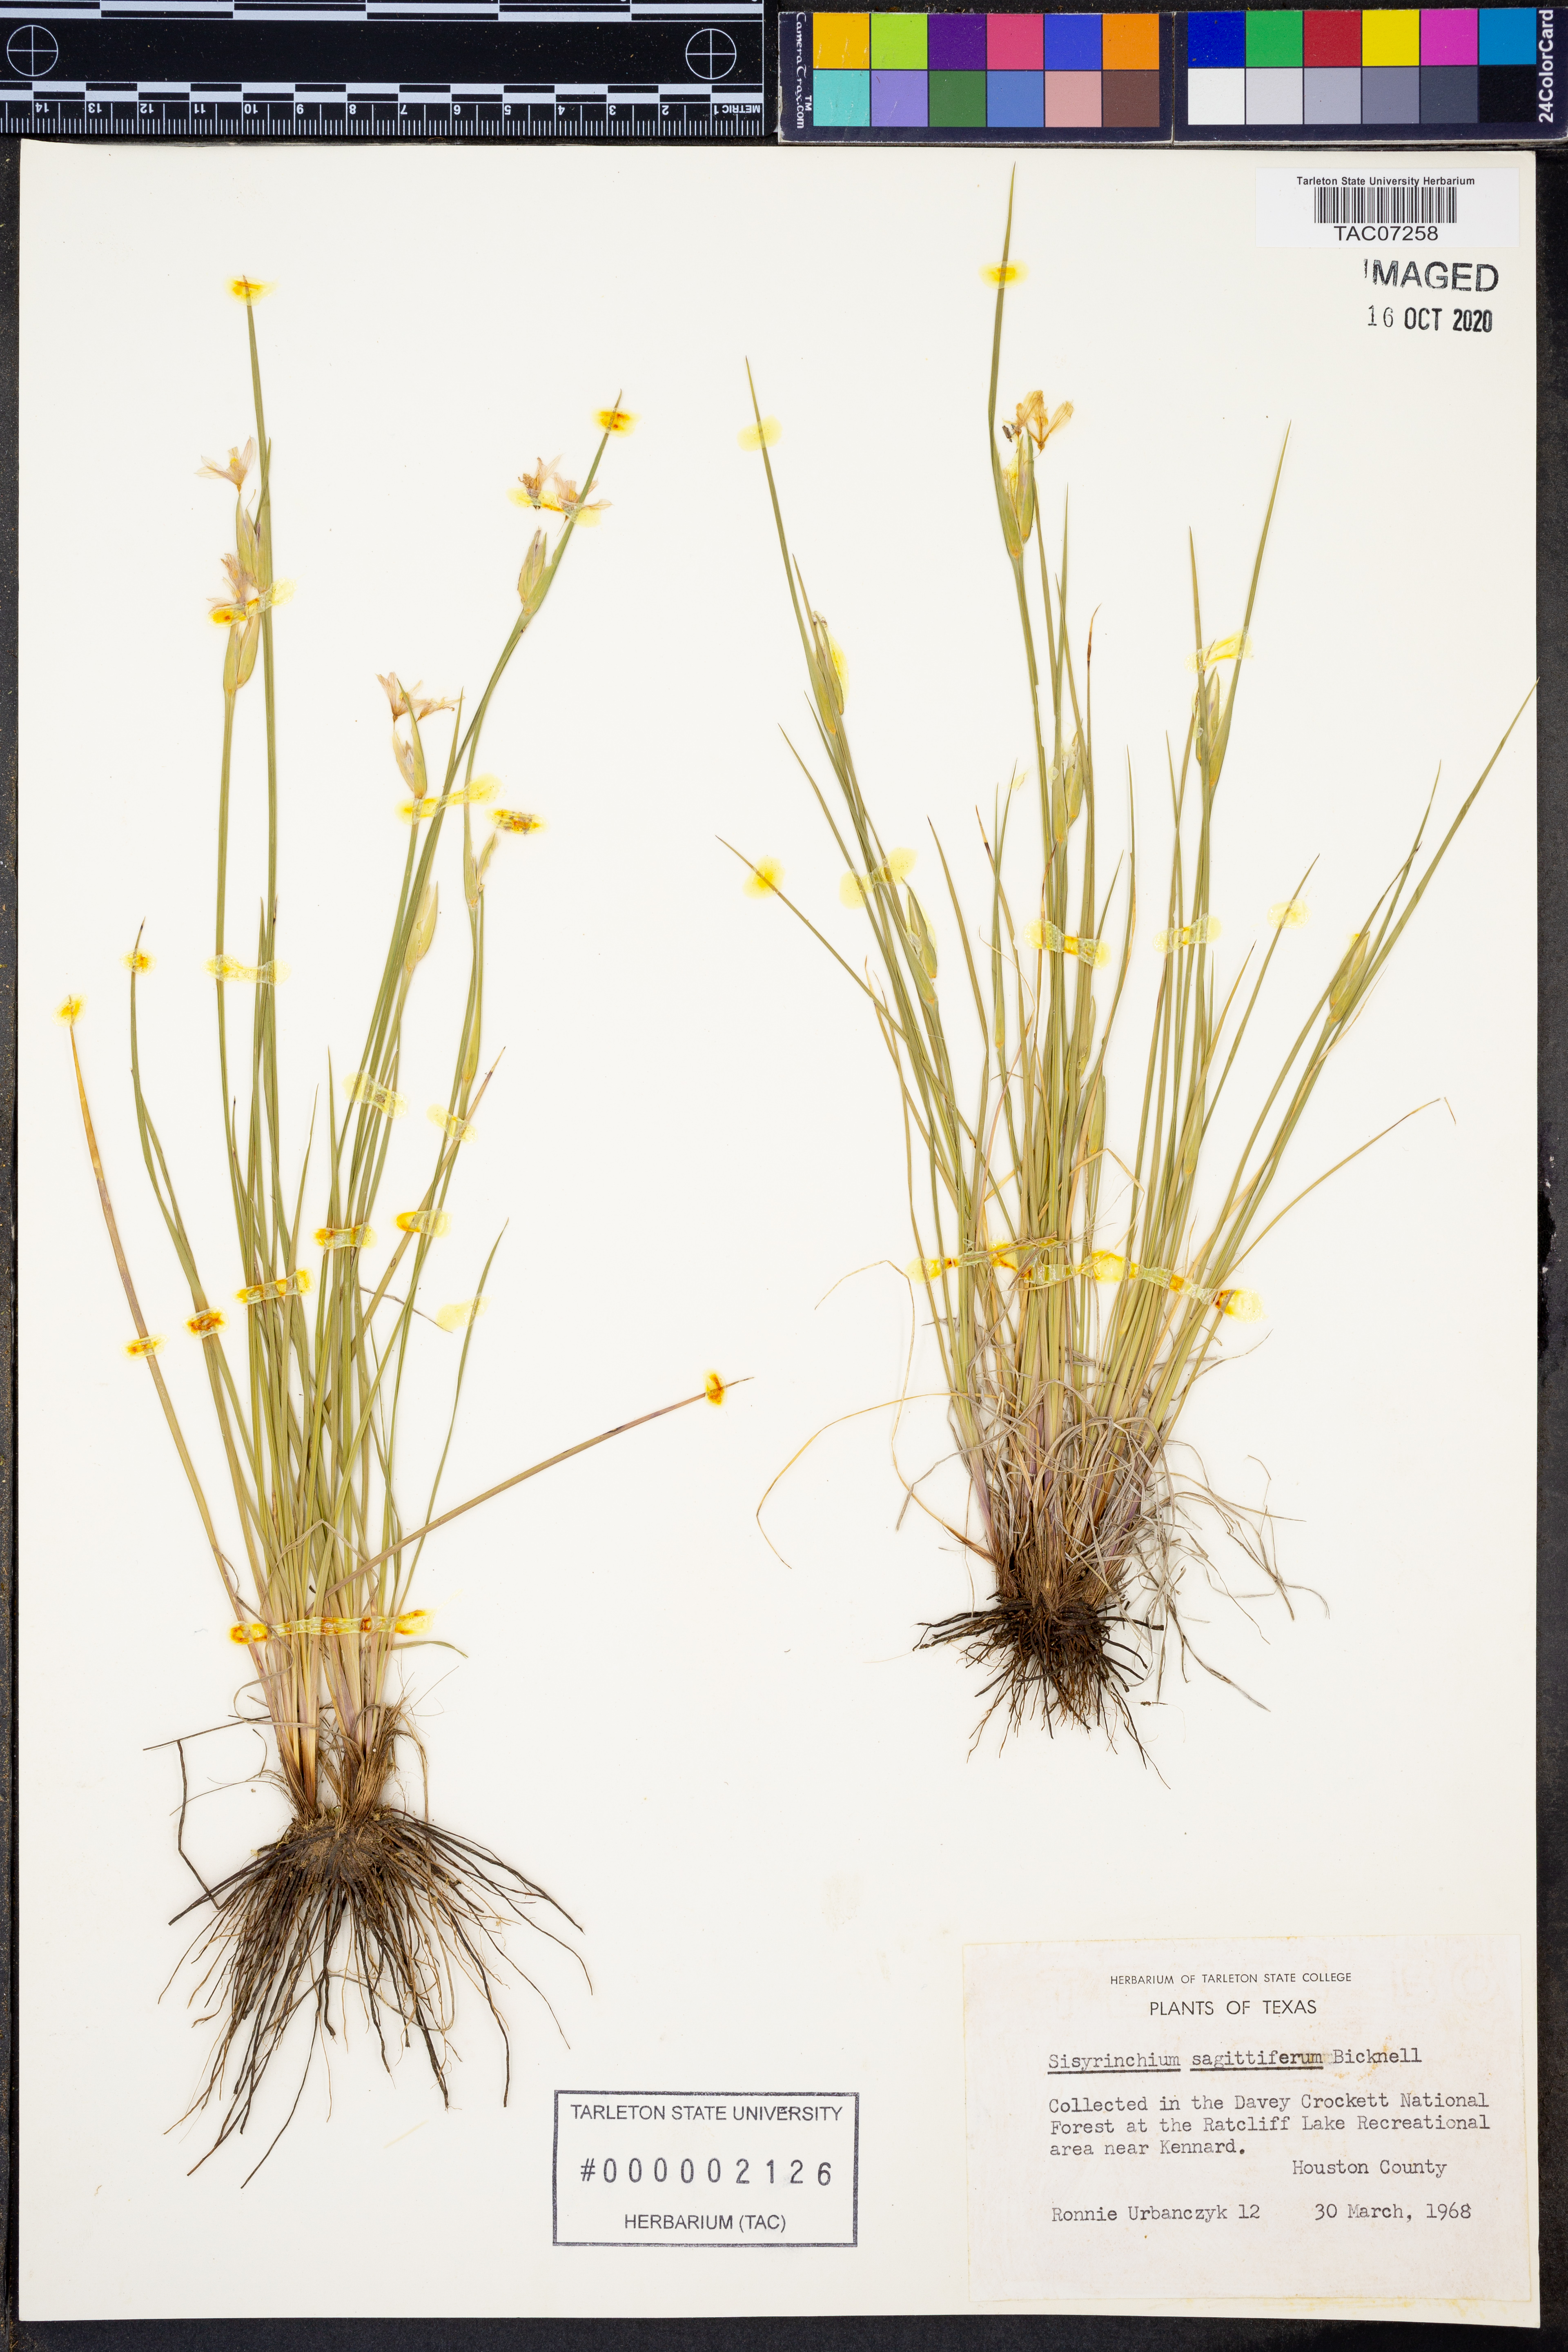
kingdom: Plantae
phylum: Tracheophyta
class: Liliopsida
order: Asparagales
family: Iridaceae
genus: Sisyrinchium
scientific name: Sisyrinchium sagittiferum
